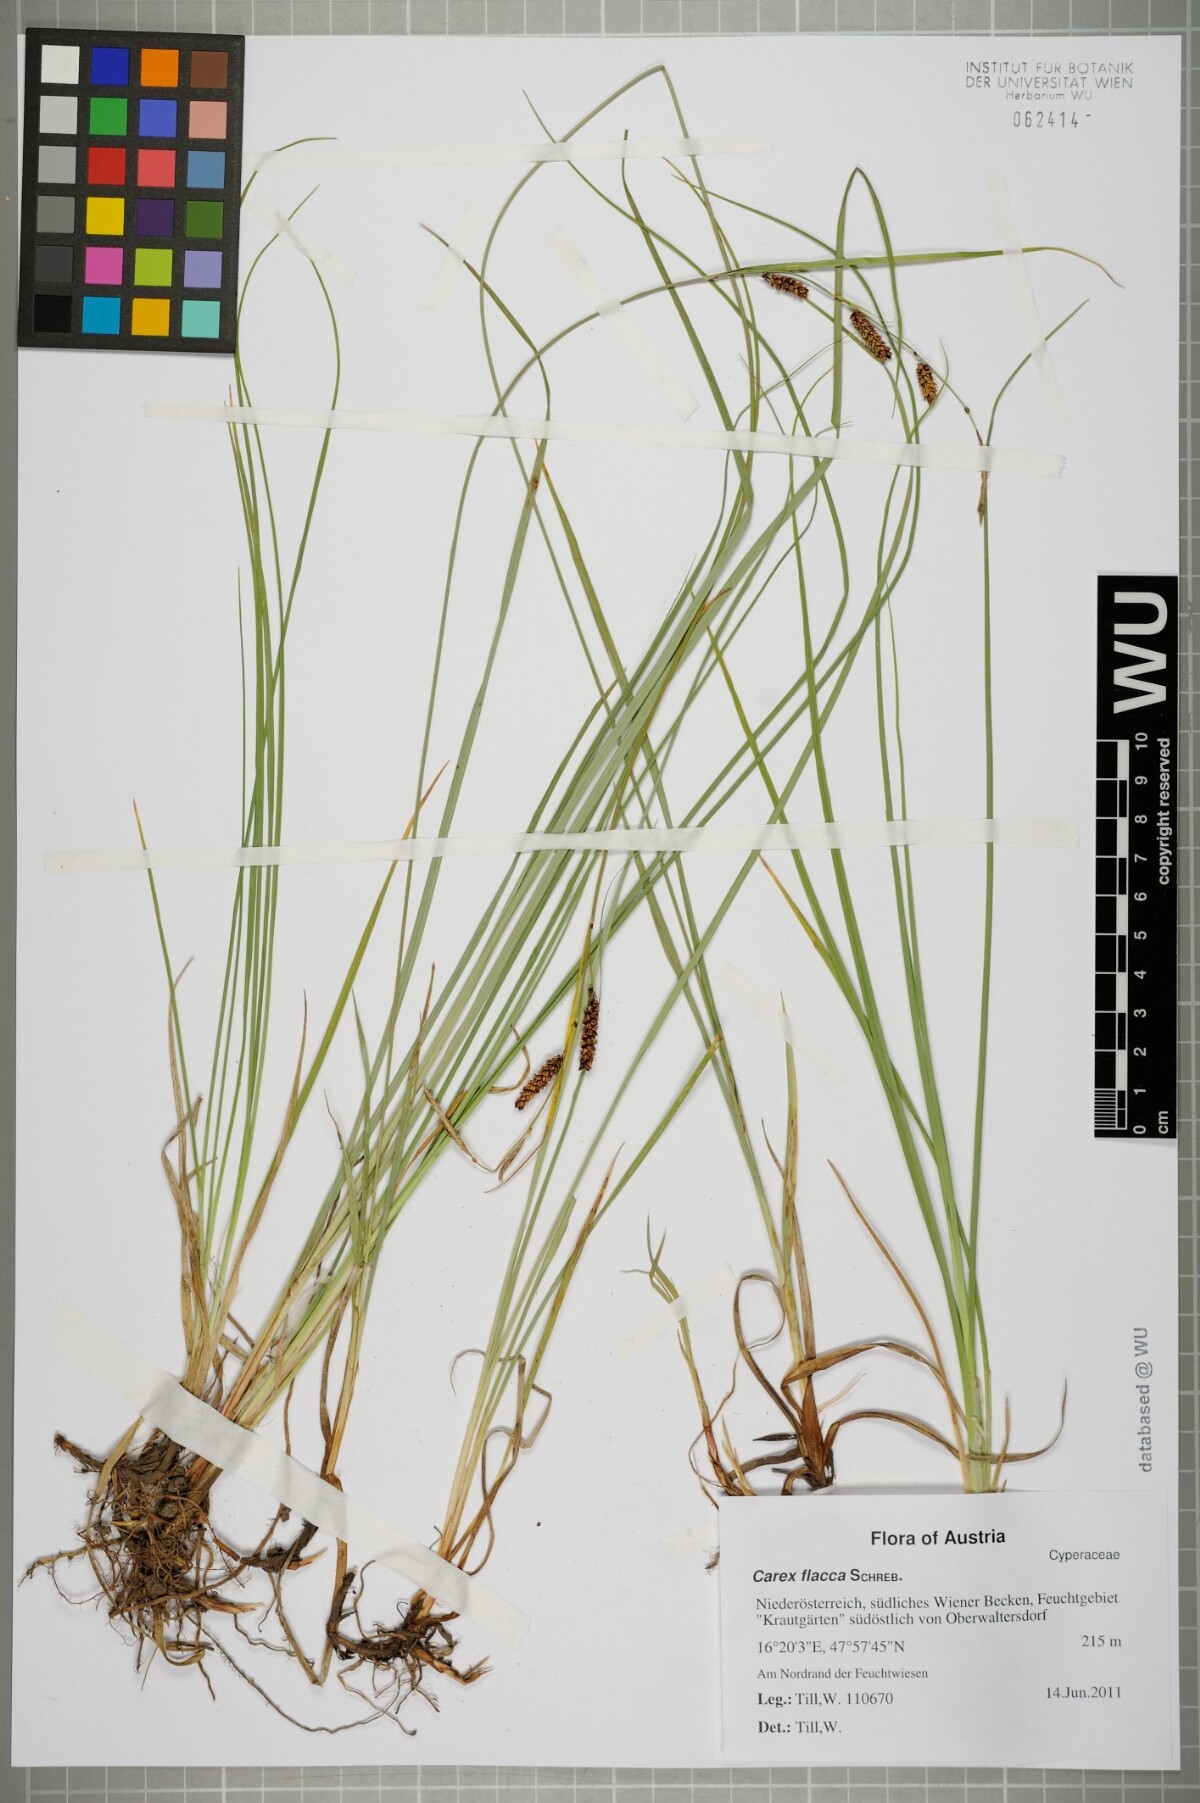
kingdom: Plantae
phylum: Tracheophyta
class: Liliopsida
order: Poales
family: Cyperaceae
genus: Carex
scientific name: Carex flacca
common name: Glaucous sedge
